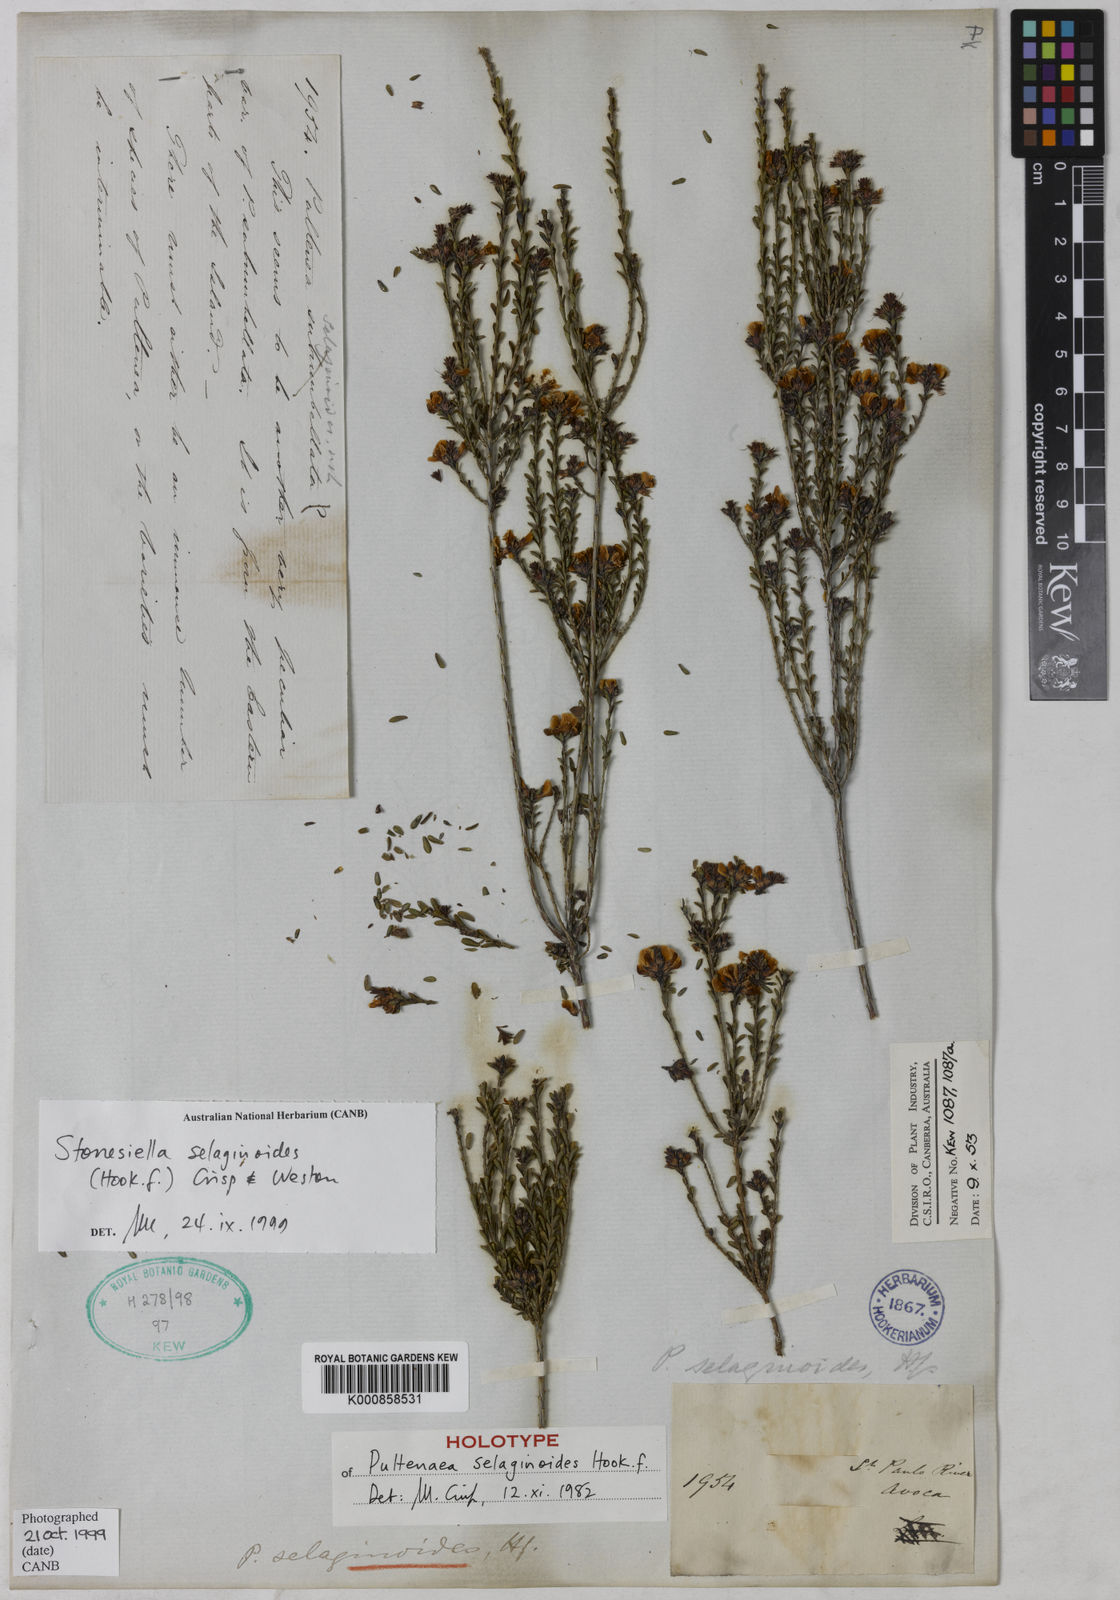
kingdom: Plantae
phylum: Tracheophyta
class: Magnoliopsida
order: Fabales
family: Fabaceae
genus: Stonesiella
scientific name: Stonesiella selaginoides
